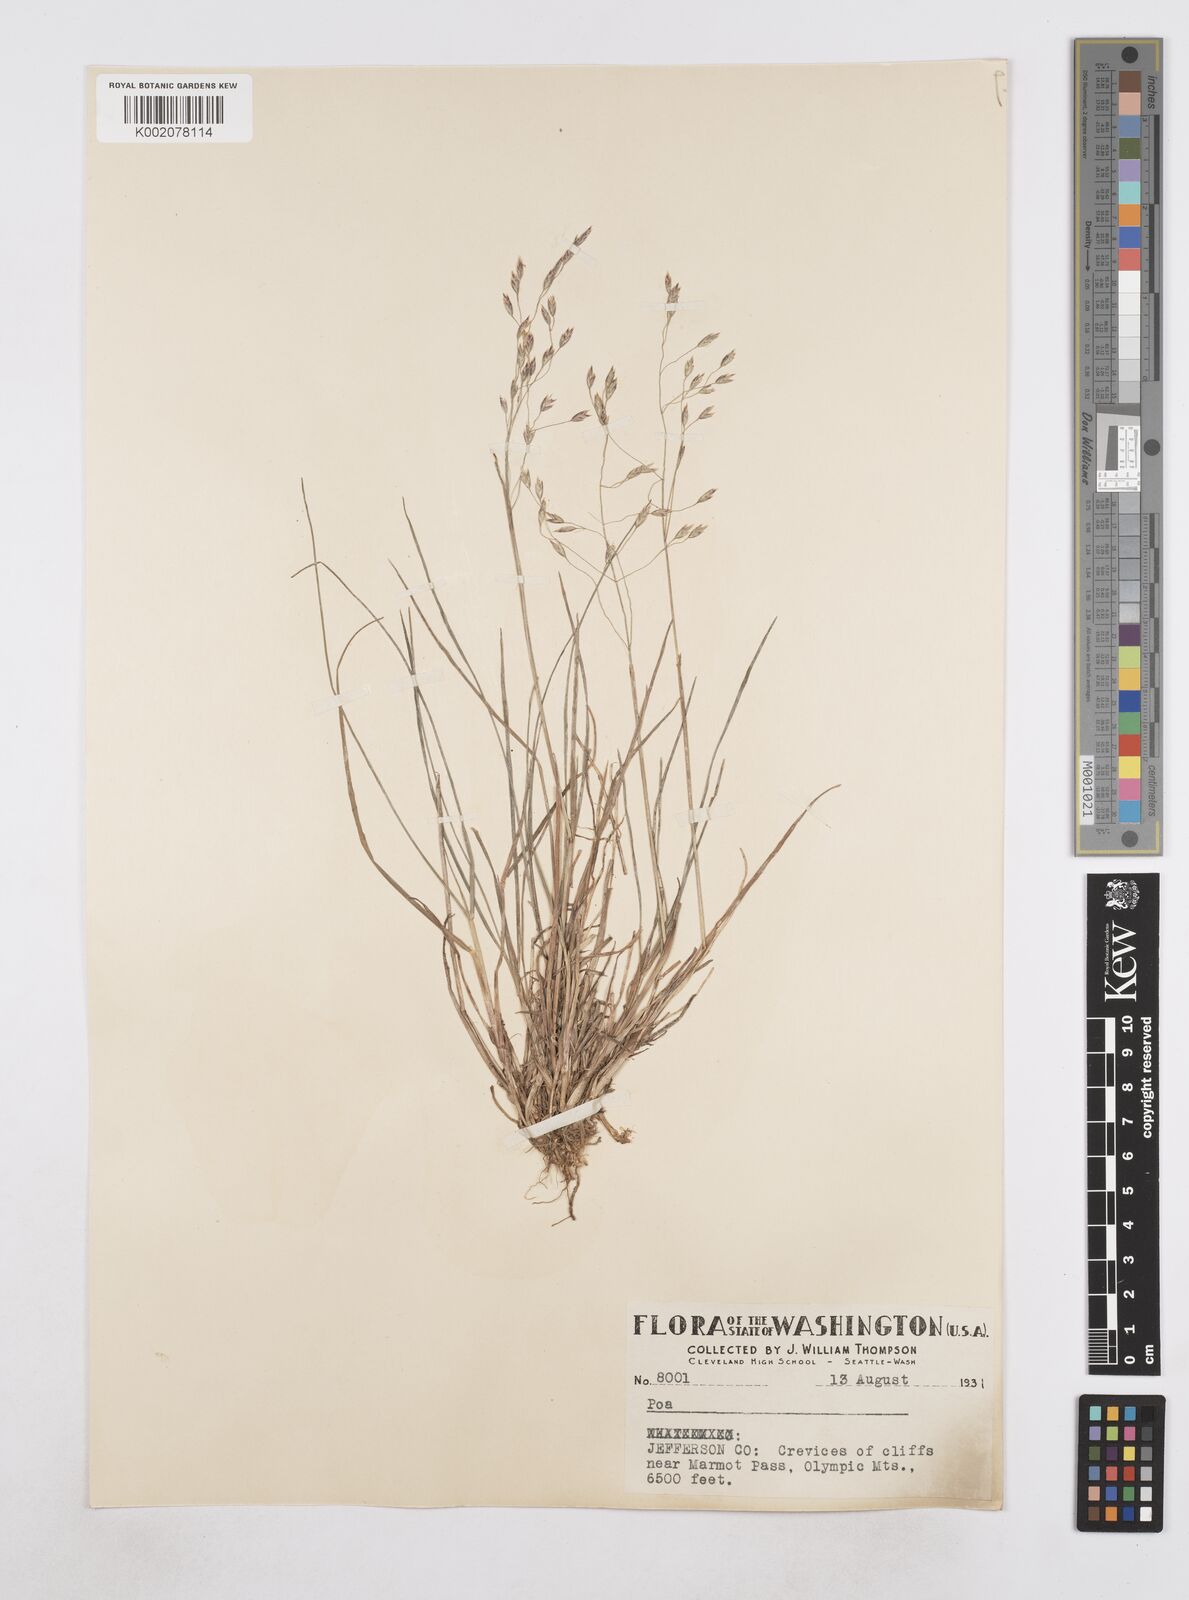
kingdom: Plantae
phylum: Tracheophyta
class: Liliopsida
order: Poales
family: Poaceae
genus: Poa
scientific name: Poa
